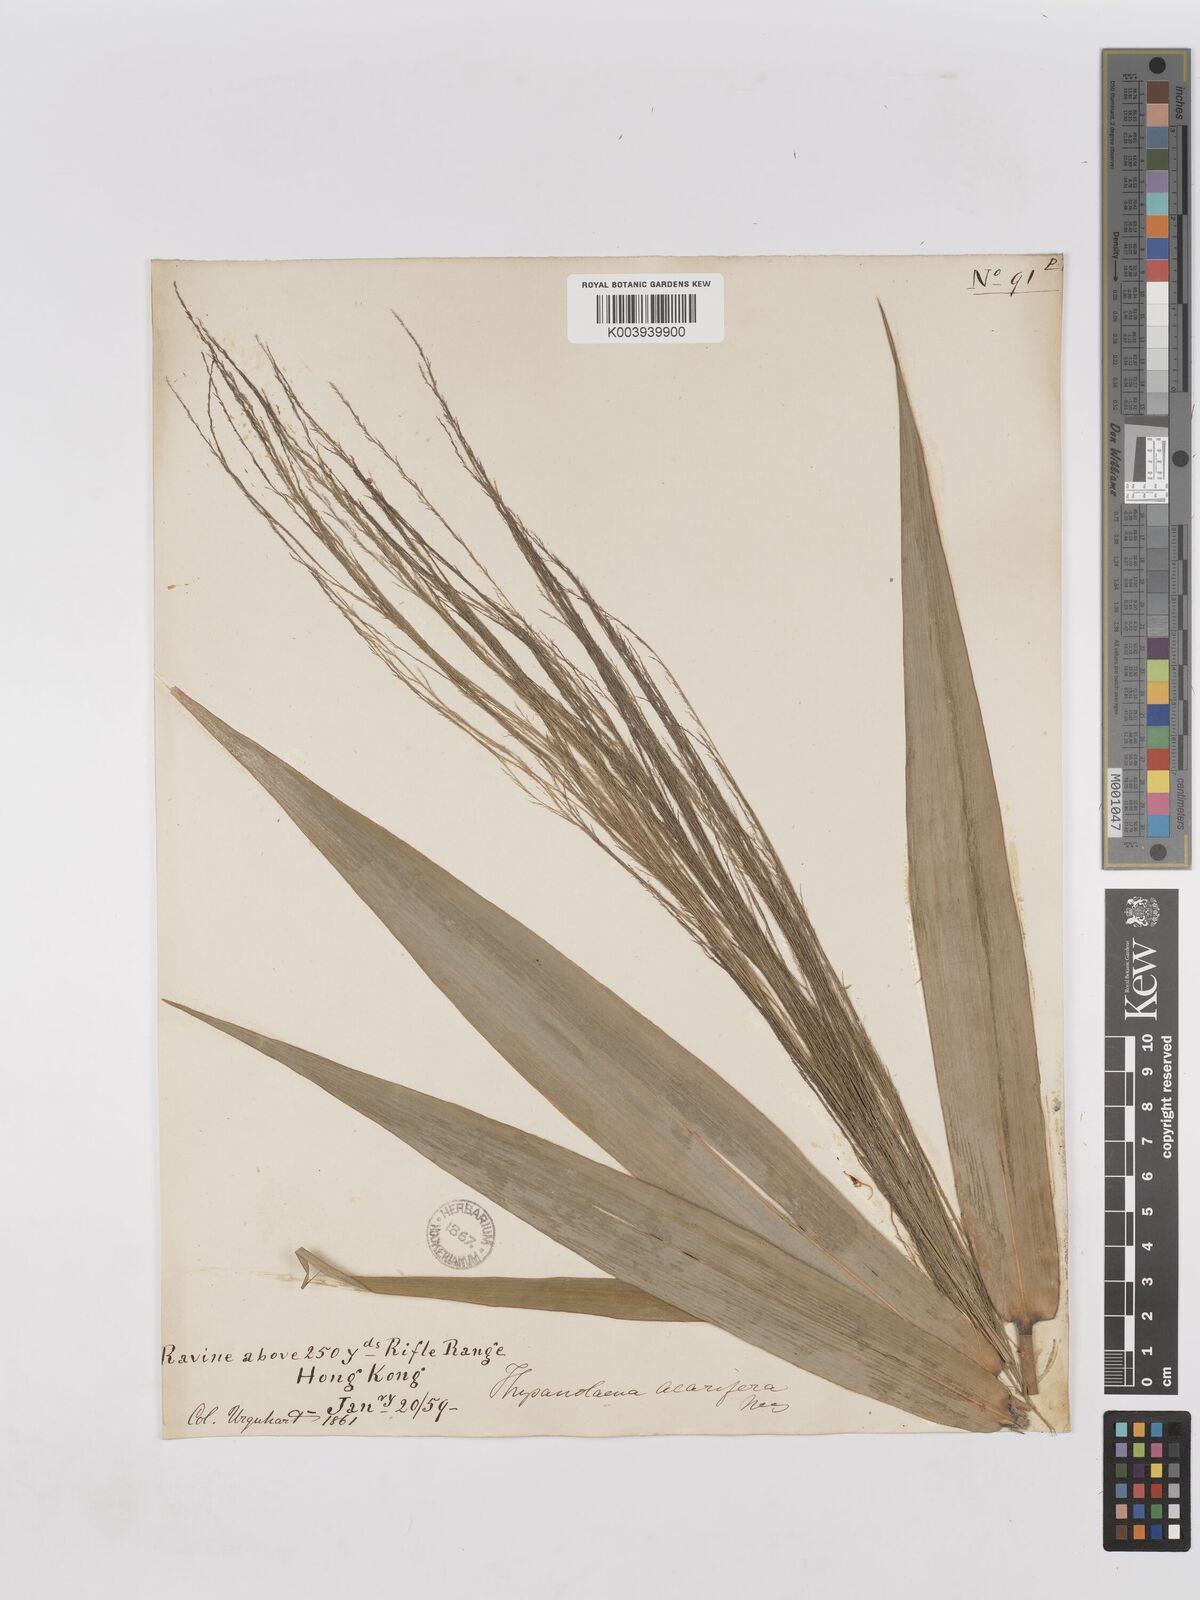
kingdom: Plantae
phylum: Tracheophyta
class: Liliopsida
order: Poales
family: Poaceae
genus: Thysanolaena
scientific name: Thysanolaena latifolia
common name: Tiger grass
